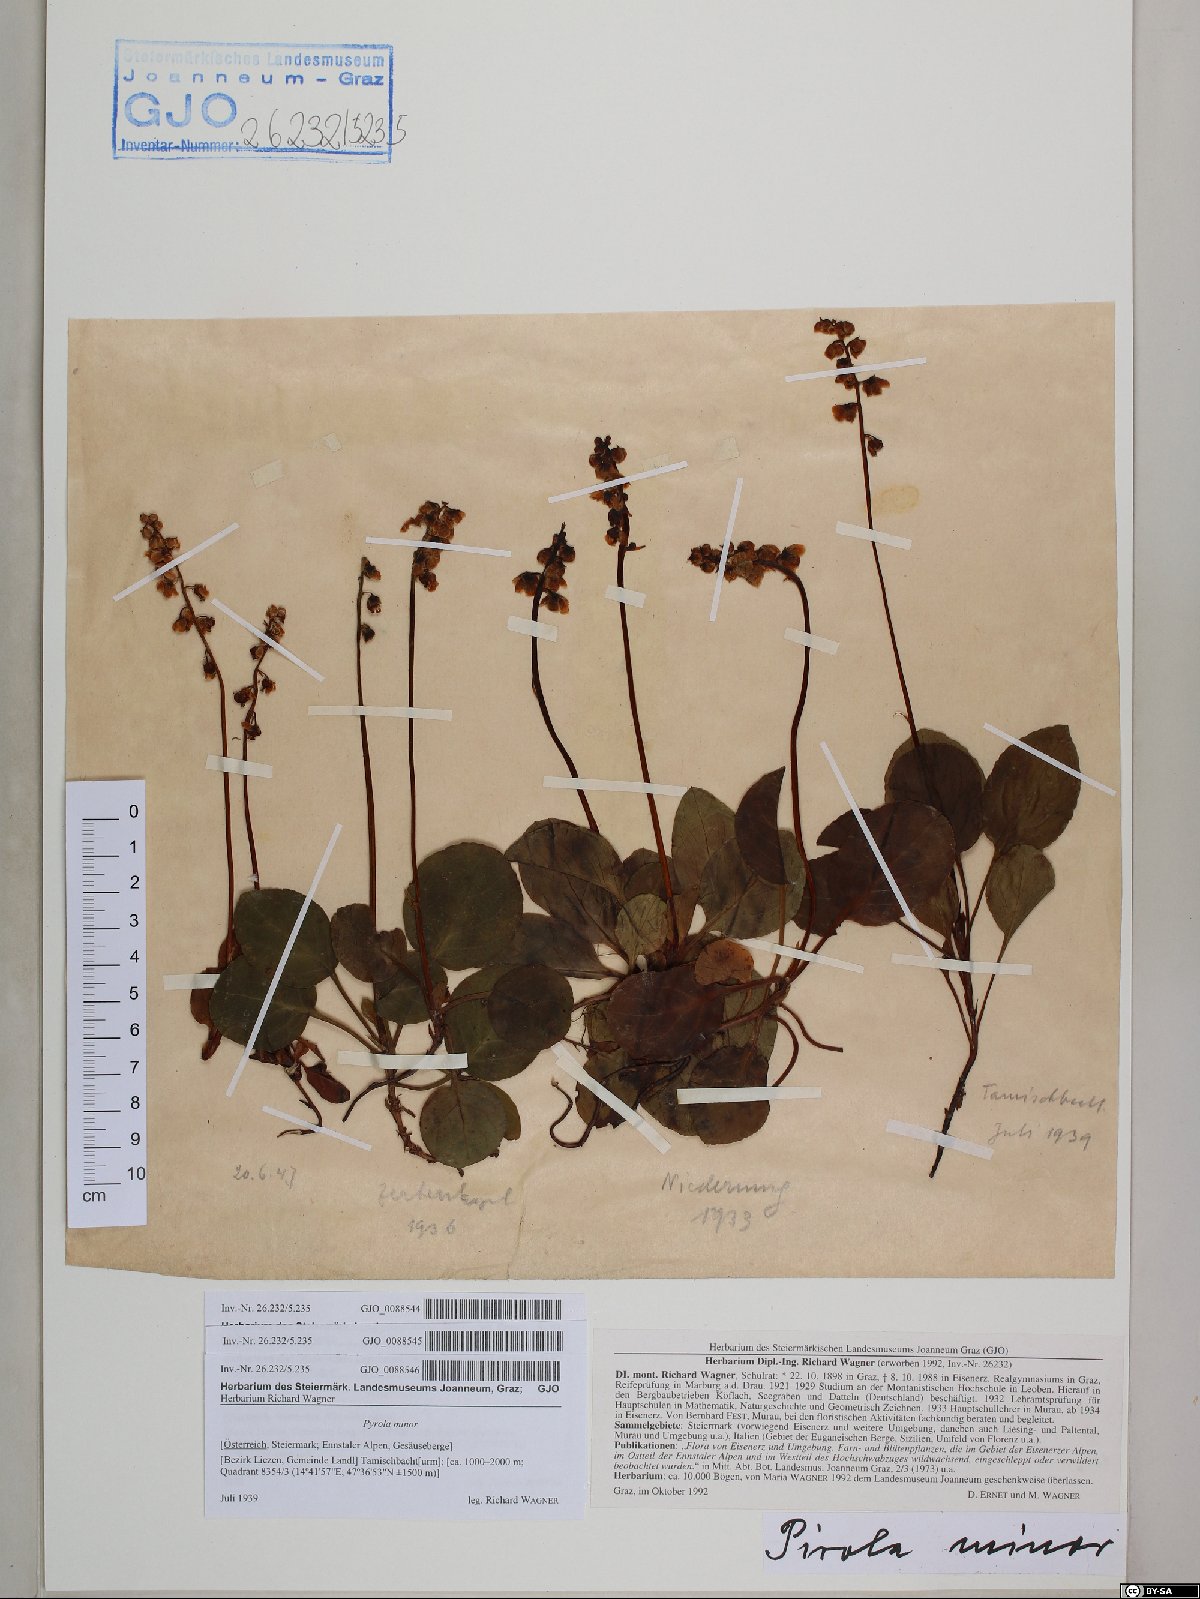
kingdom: Plantae
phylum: Tracheophyta
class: Magnoliopsida
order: Ericales
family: Ericaceae
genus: Pyrola
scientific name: Pyrola minor
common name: Common wintergreen
